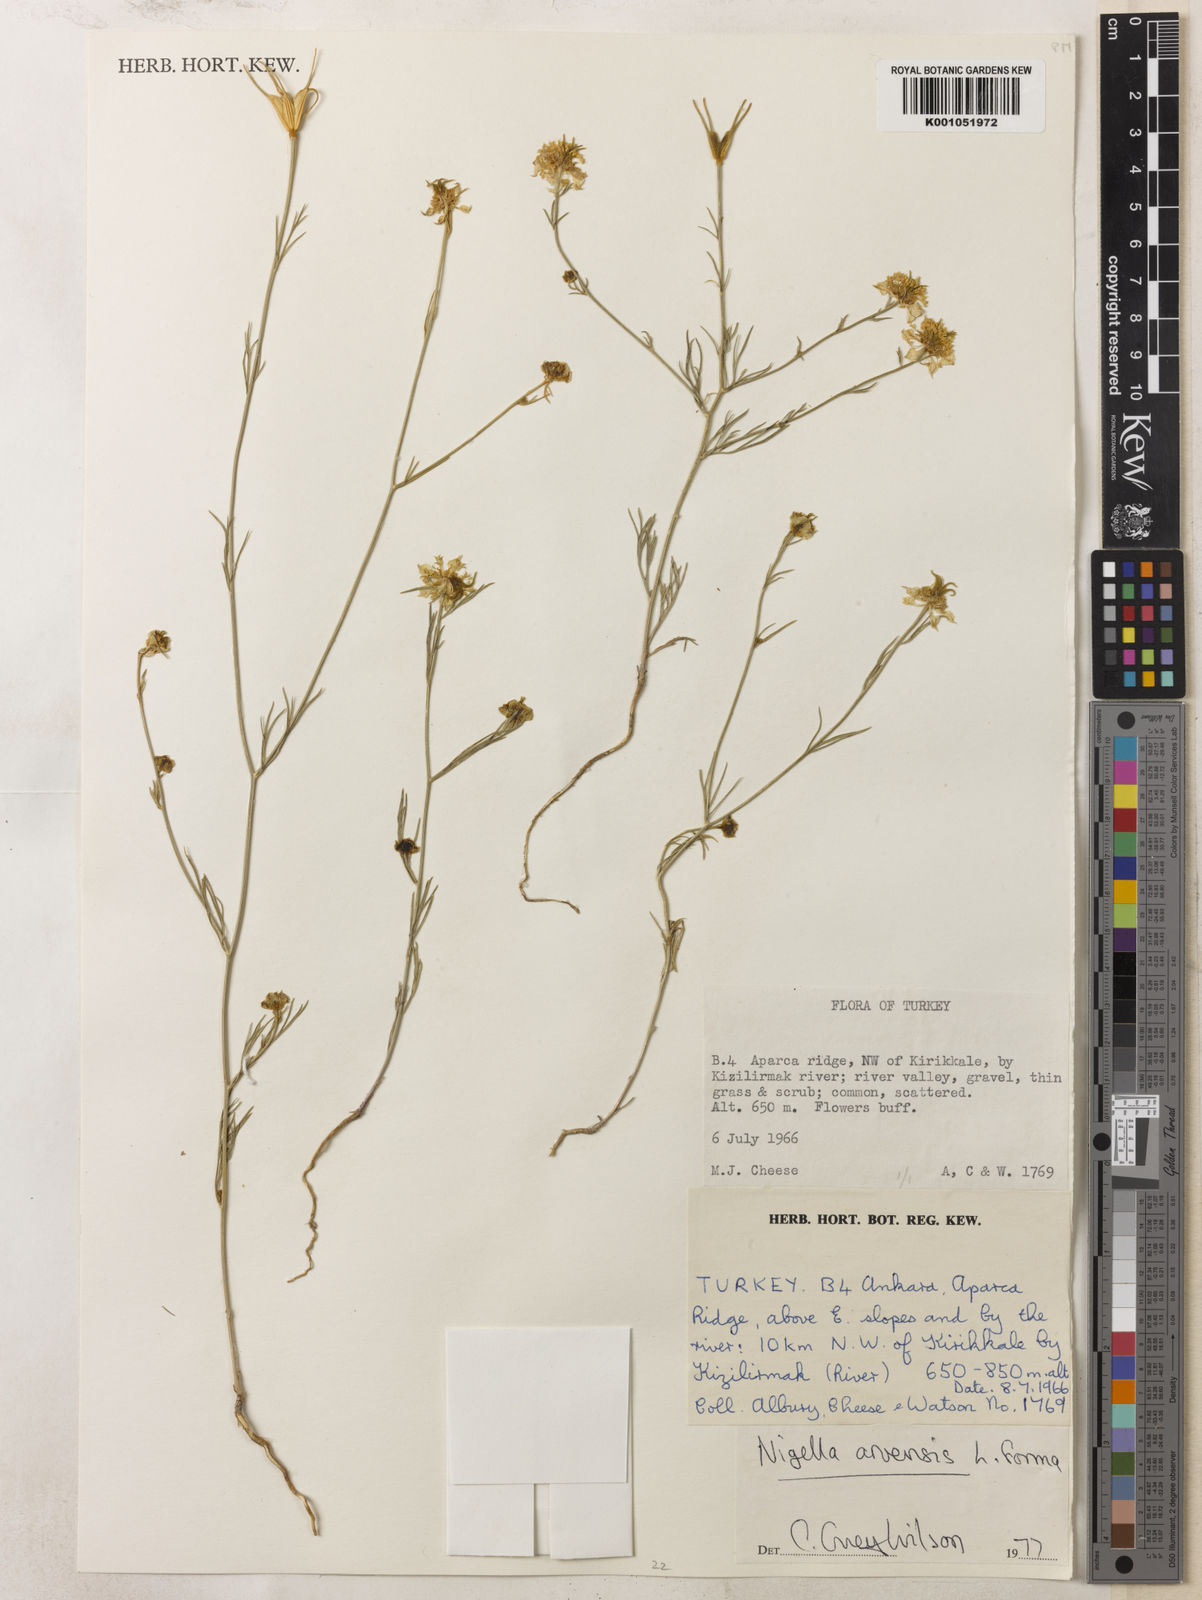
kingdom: Plantae
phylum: Tracheophyta
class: Magnoliopsida
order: Ranunculales
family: Ranunculaceae
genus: Nigella
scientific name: Nigella arvensis
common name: Wild fennel-flower
